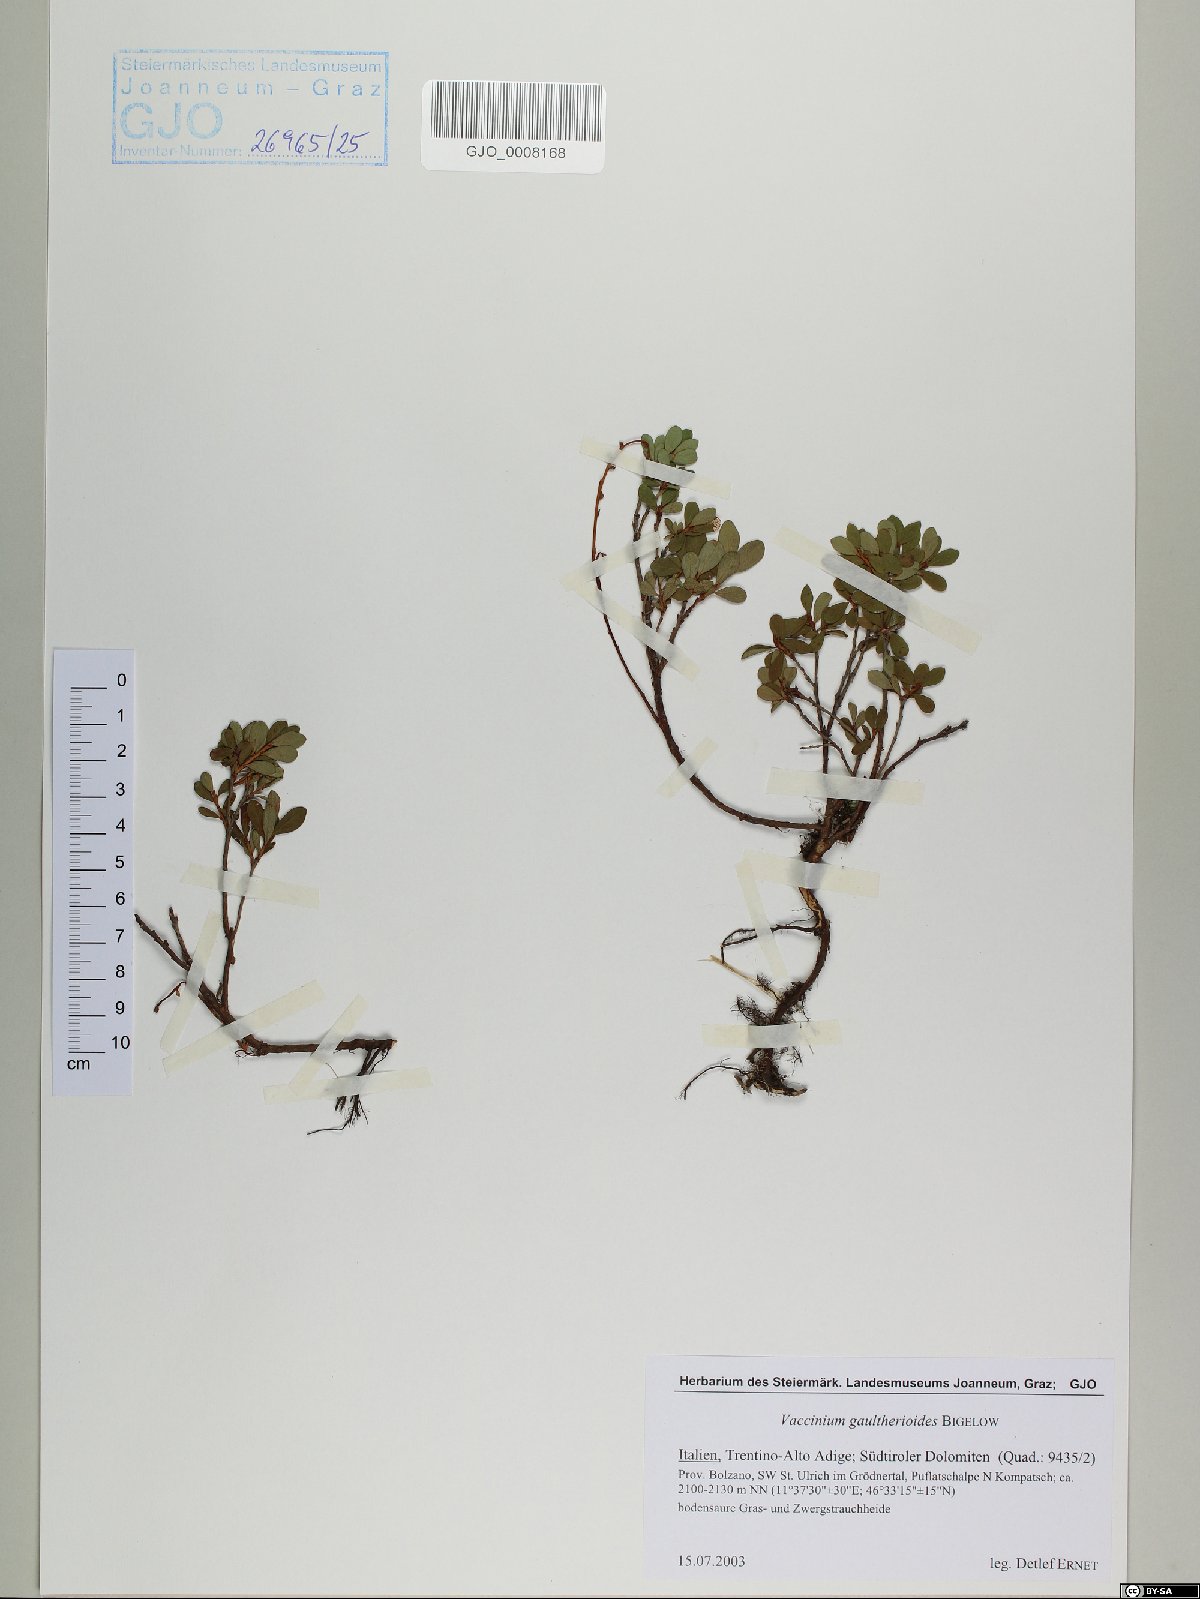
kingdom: Plantae
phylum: Tracheophyta
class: Magnoliopsida
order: Ericales
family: Ericaceae
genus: Vaccinium
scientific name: Vaccinium gaultherioides
